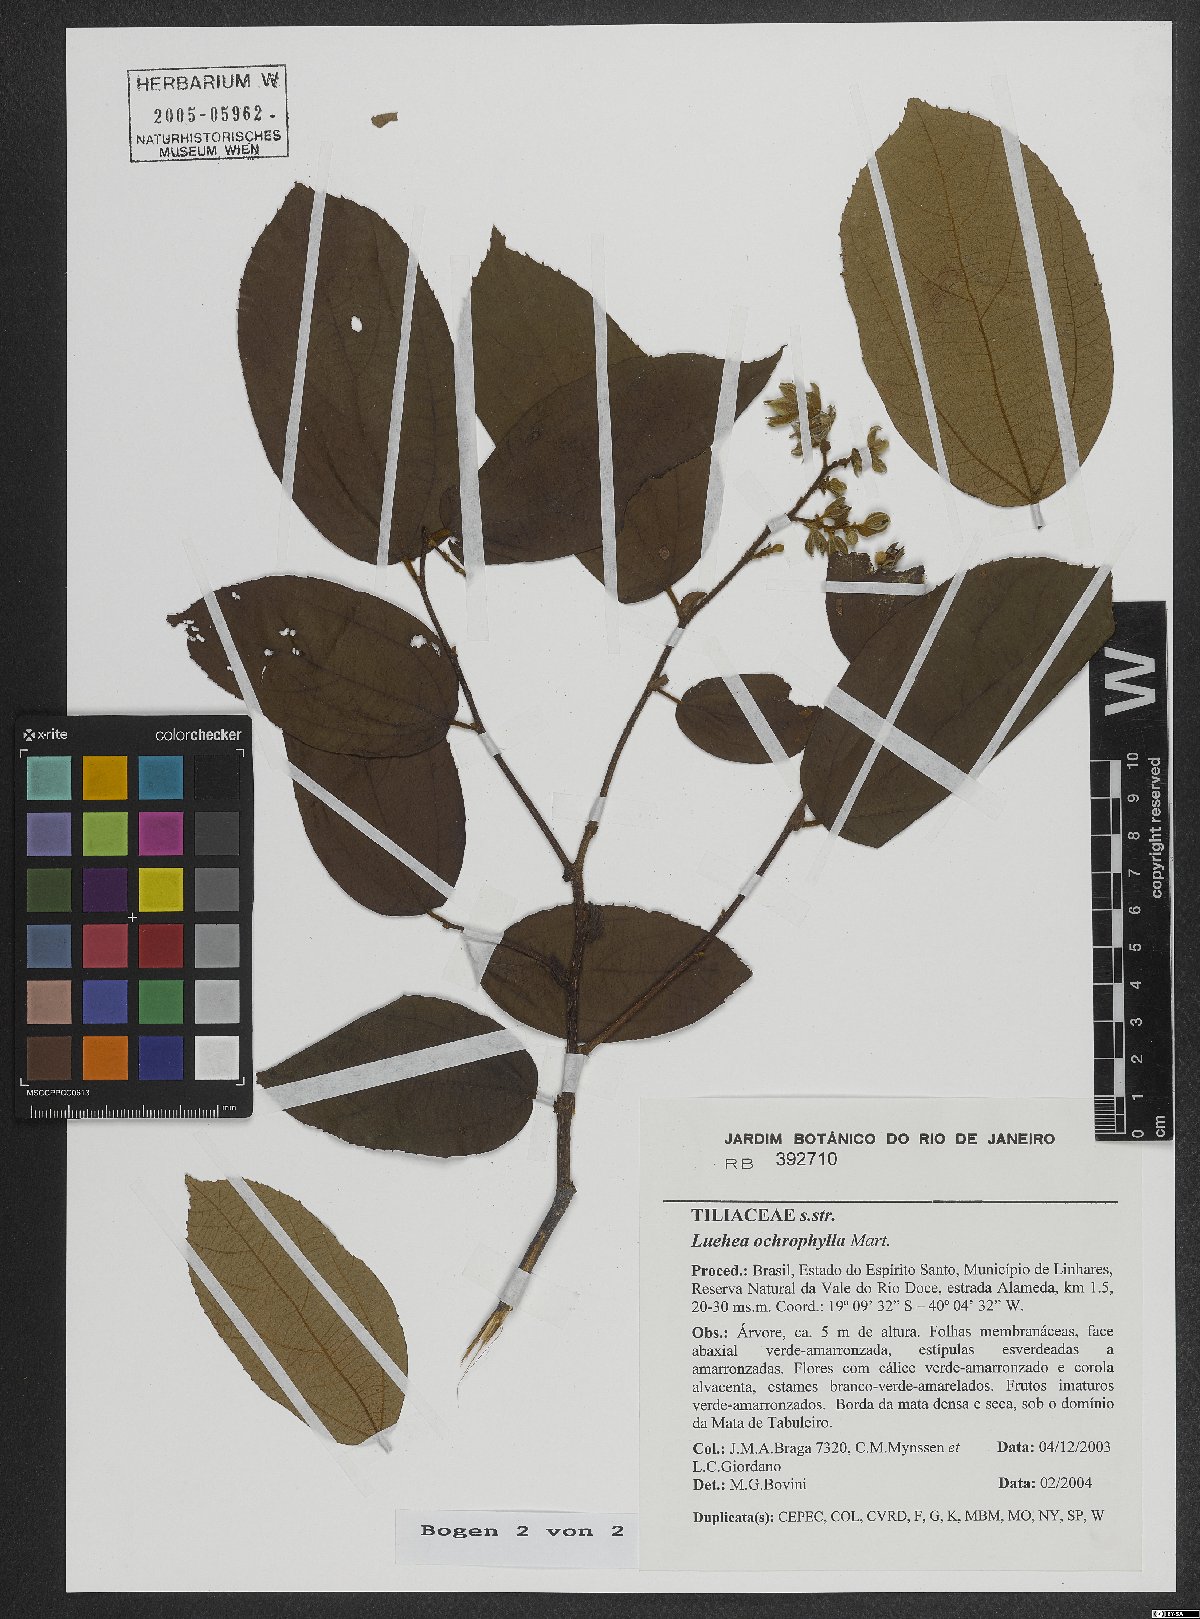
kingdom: Plantae
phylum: Tracheophyta
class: Magnoliopsida
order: Malvales
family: Malvaceae
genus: Luehea
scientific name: Luehea ochrophylla
